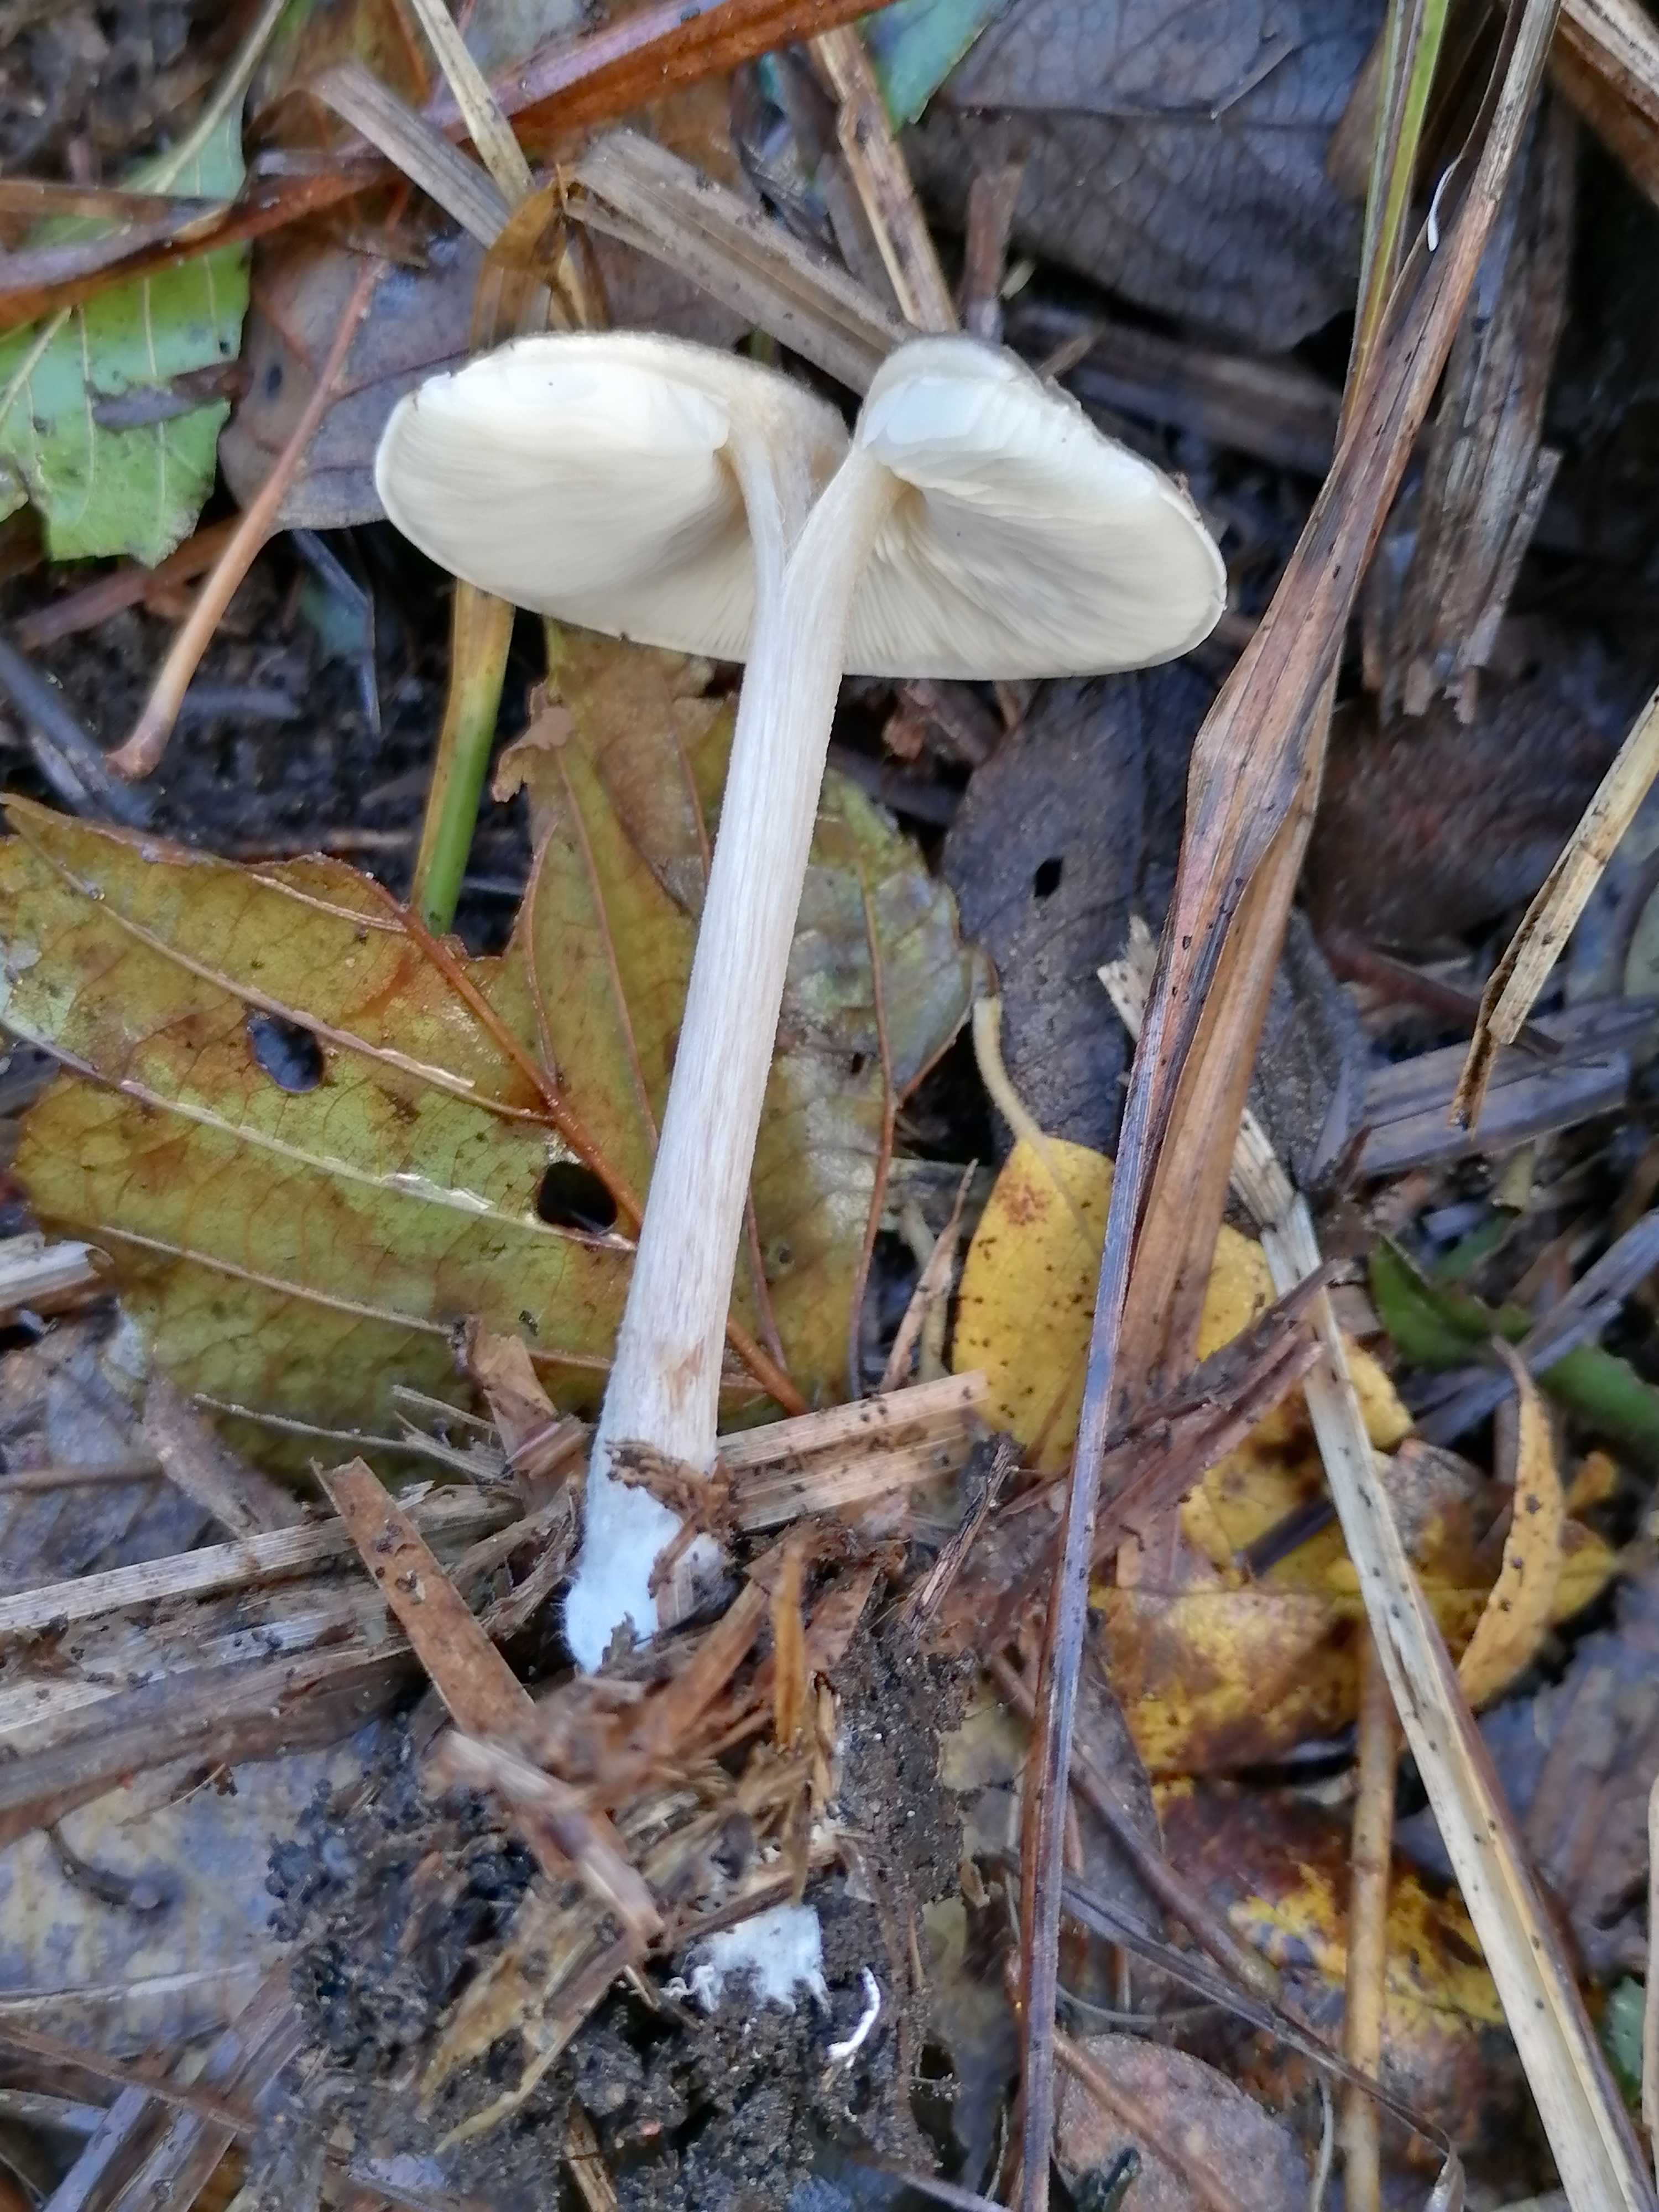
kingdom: Fungi
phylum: Basidiomycota
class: Agaricomycetes
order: Agaricales
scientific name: Agaricales
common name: champignonordenen
